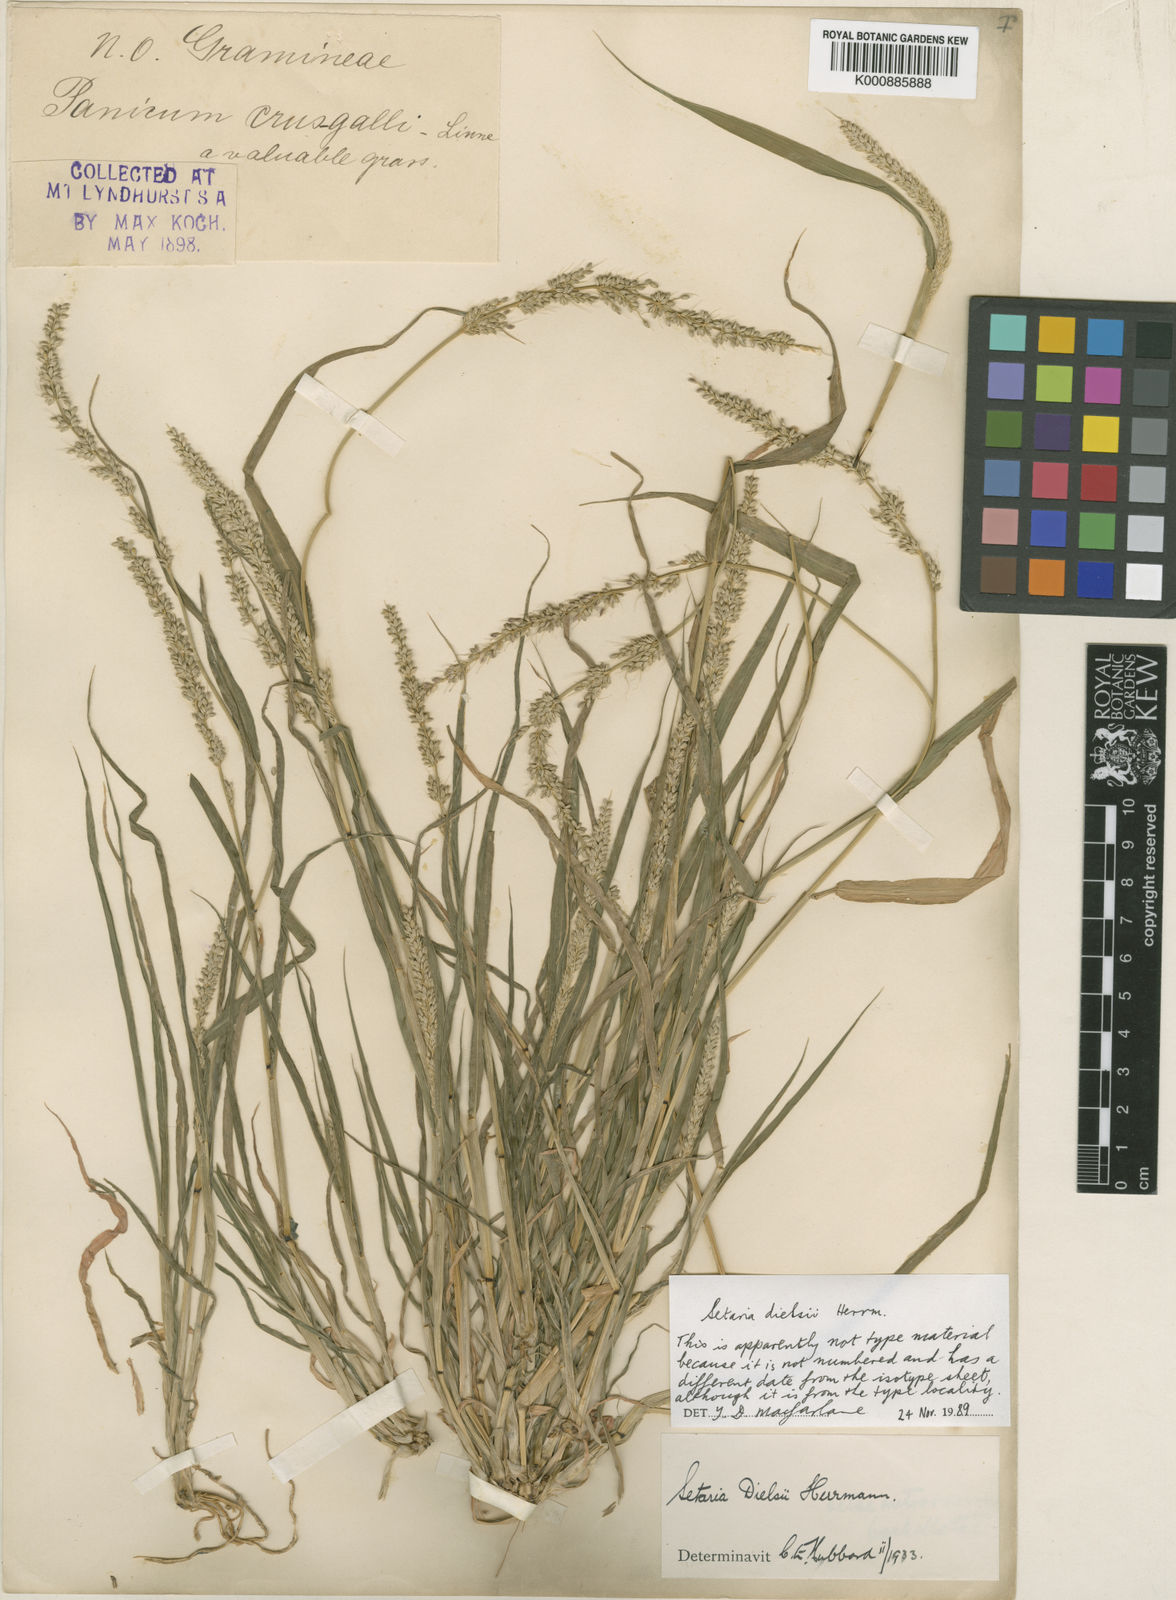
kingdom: Plantae
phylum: Tracheophyta
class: Liliopsida
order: Poales
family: Poaceae
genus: Setaria
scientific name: Setaria dielsii
